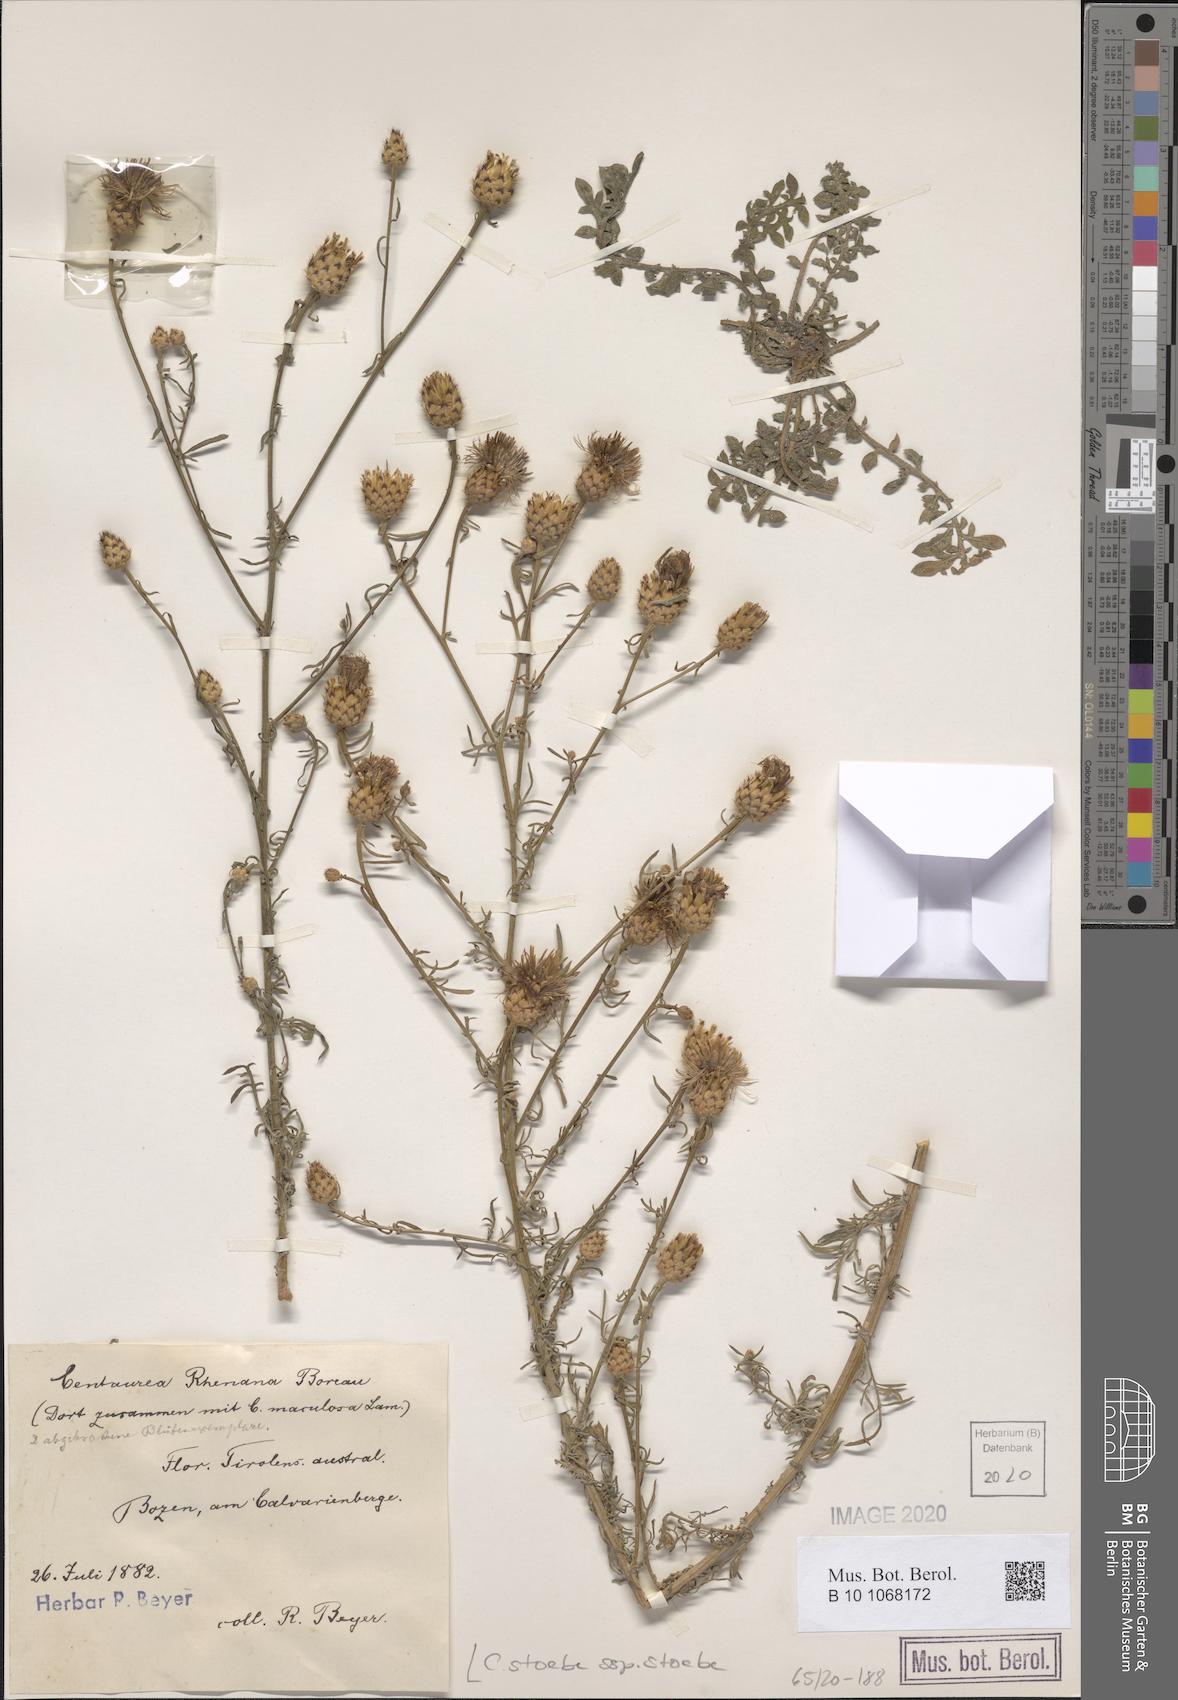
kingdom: Plantae
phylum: Tracheophyta
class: Magnoliopsida
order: Asterales
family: Asteraceae
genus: Centaurea
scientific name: Centaurea stoebe
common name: Spotted knapweed
